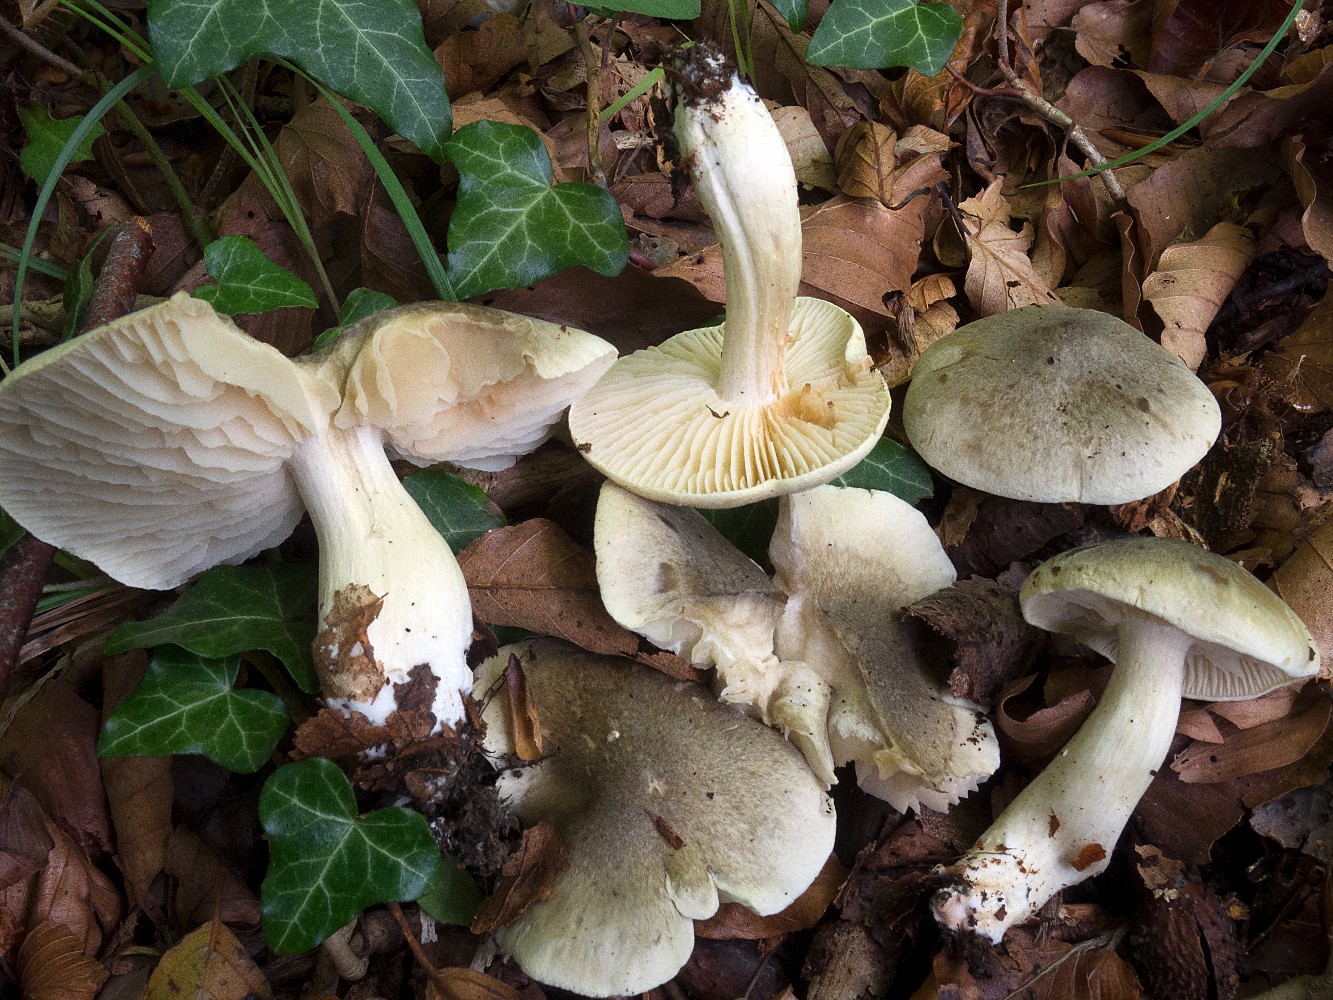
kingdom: Fungi
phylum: Basidiomycota
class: Agaricomycetes
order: Agaricales
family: Tricholomataceae
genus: Tricholoma
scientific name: Tricholoma saponaceum
